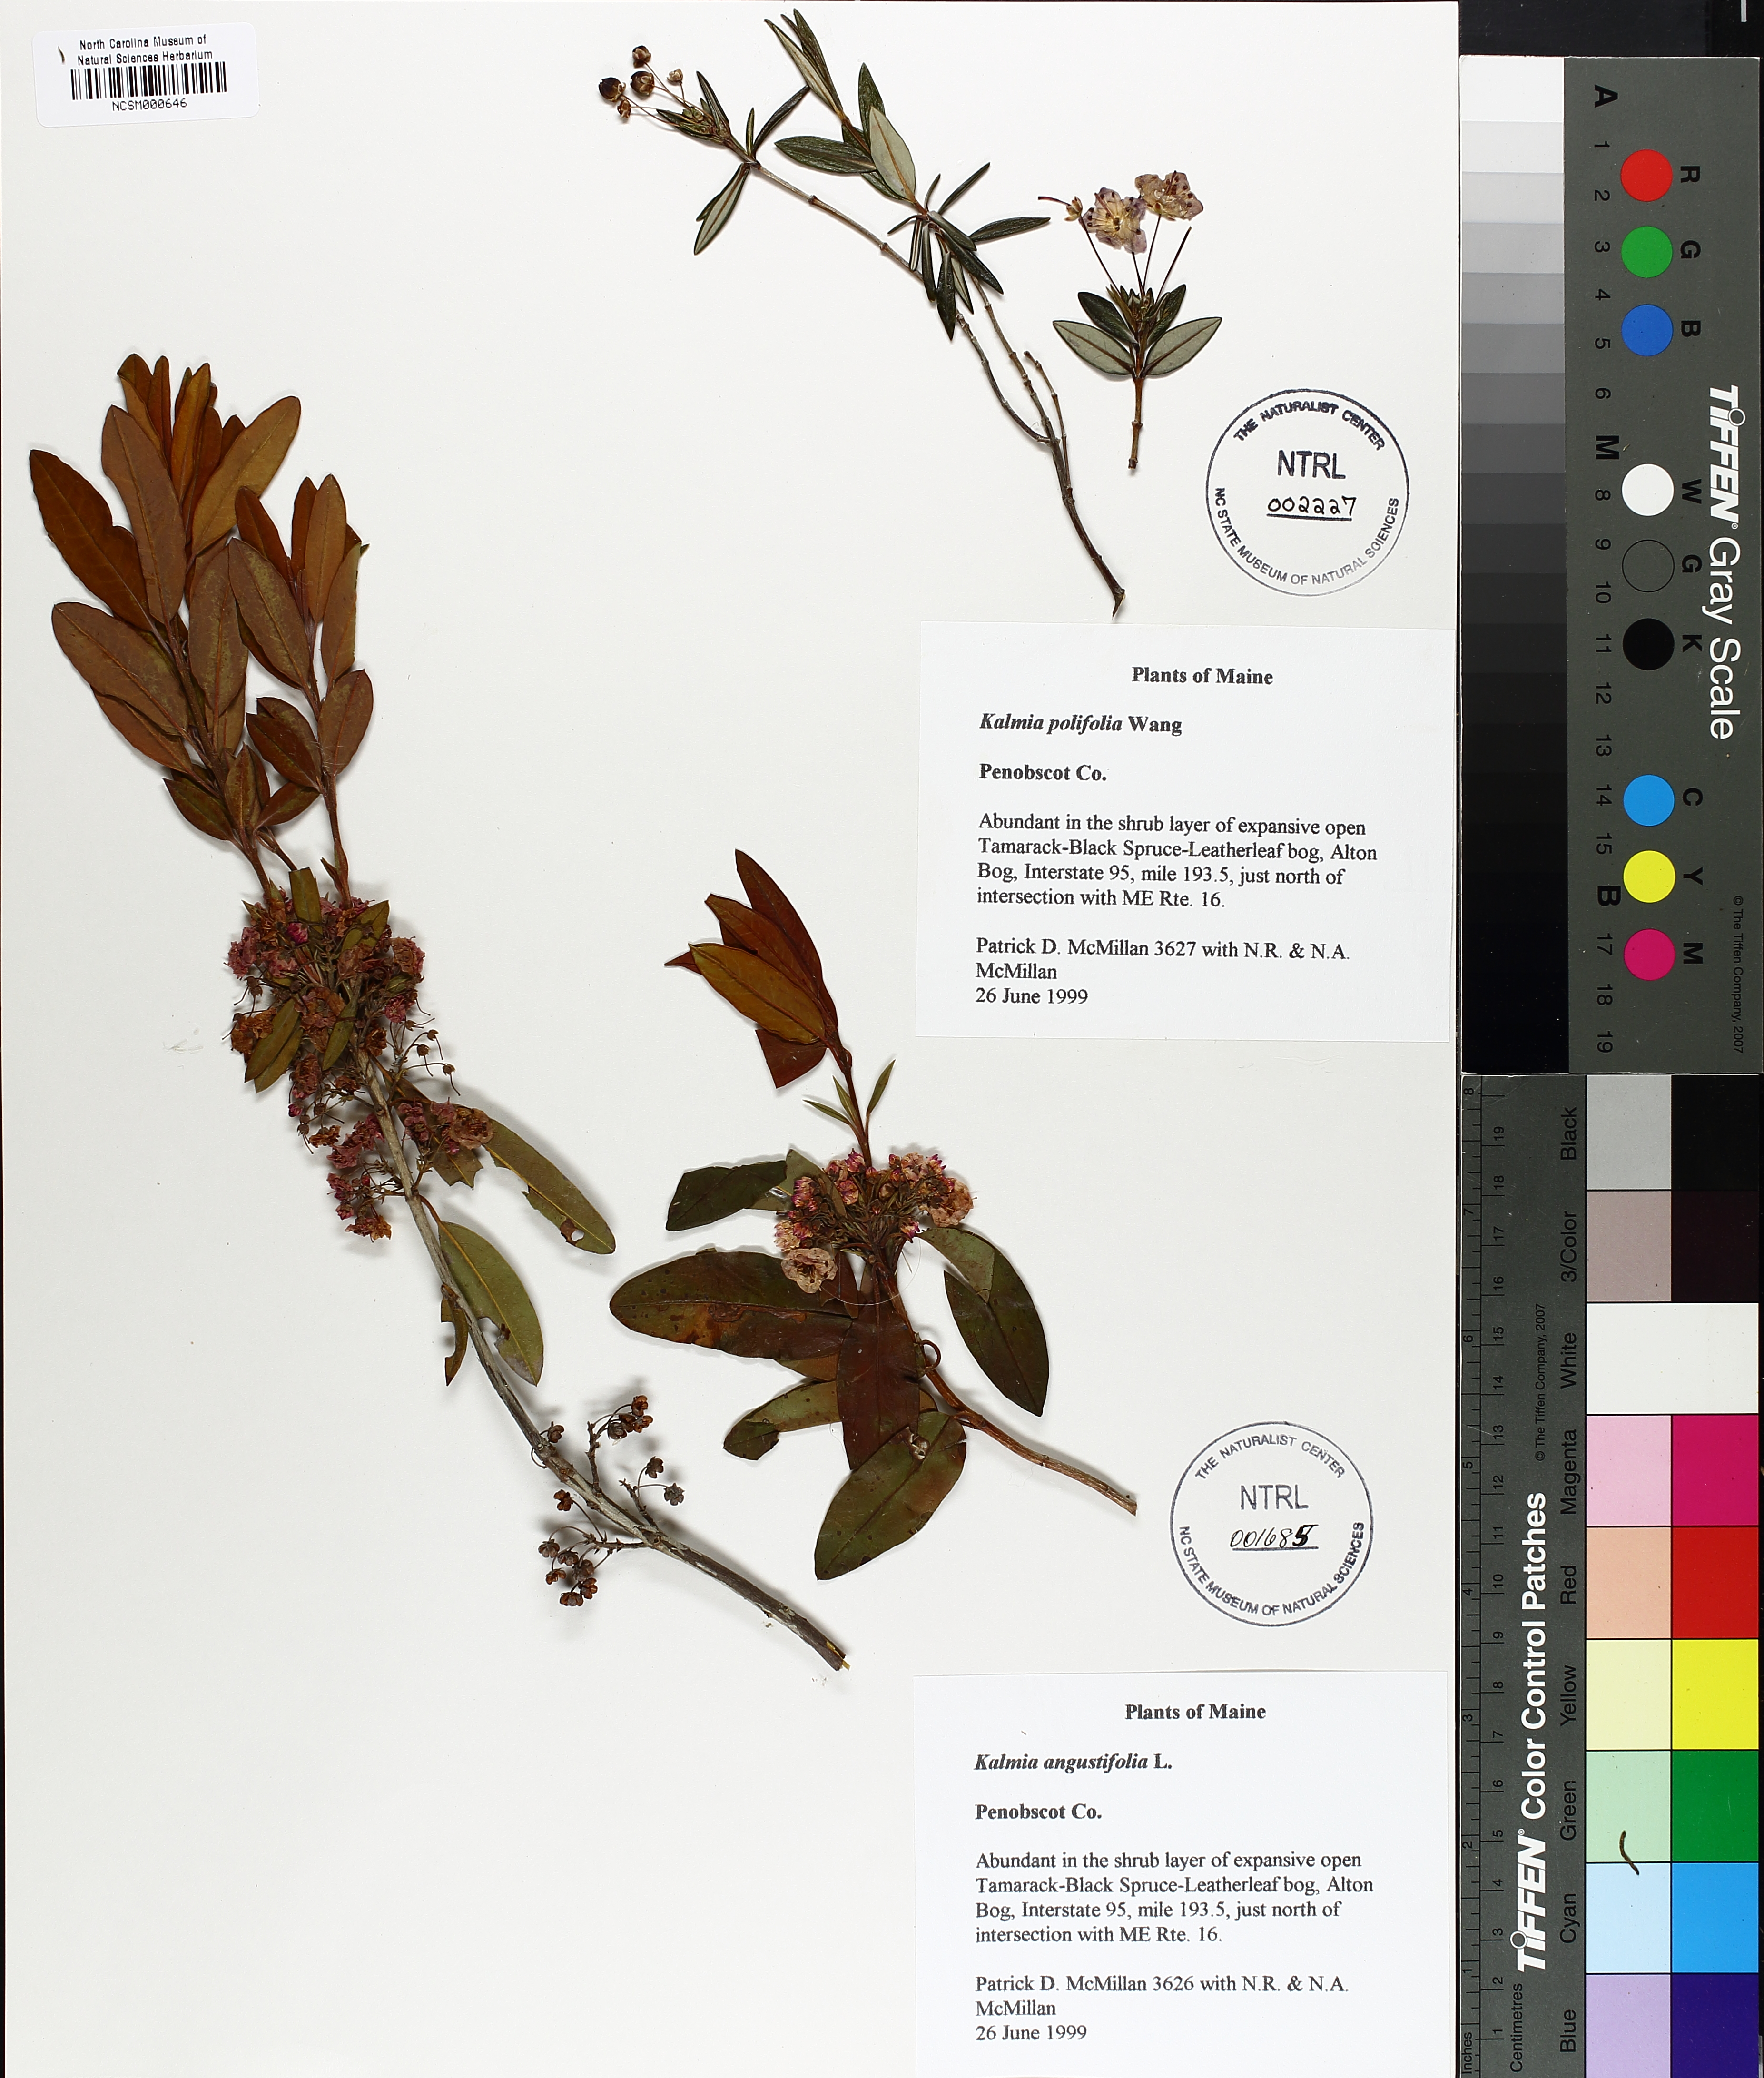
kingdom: Plantae
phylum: Tracheophyta
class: Magnoliopsida
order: Ericales
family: Ericaceae
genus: Kalmia
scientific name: Kalmia polifolia
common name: Bog-laurel
